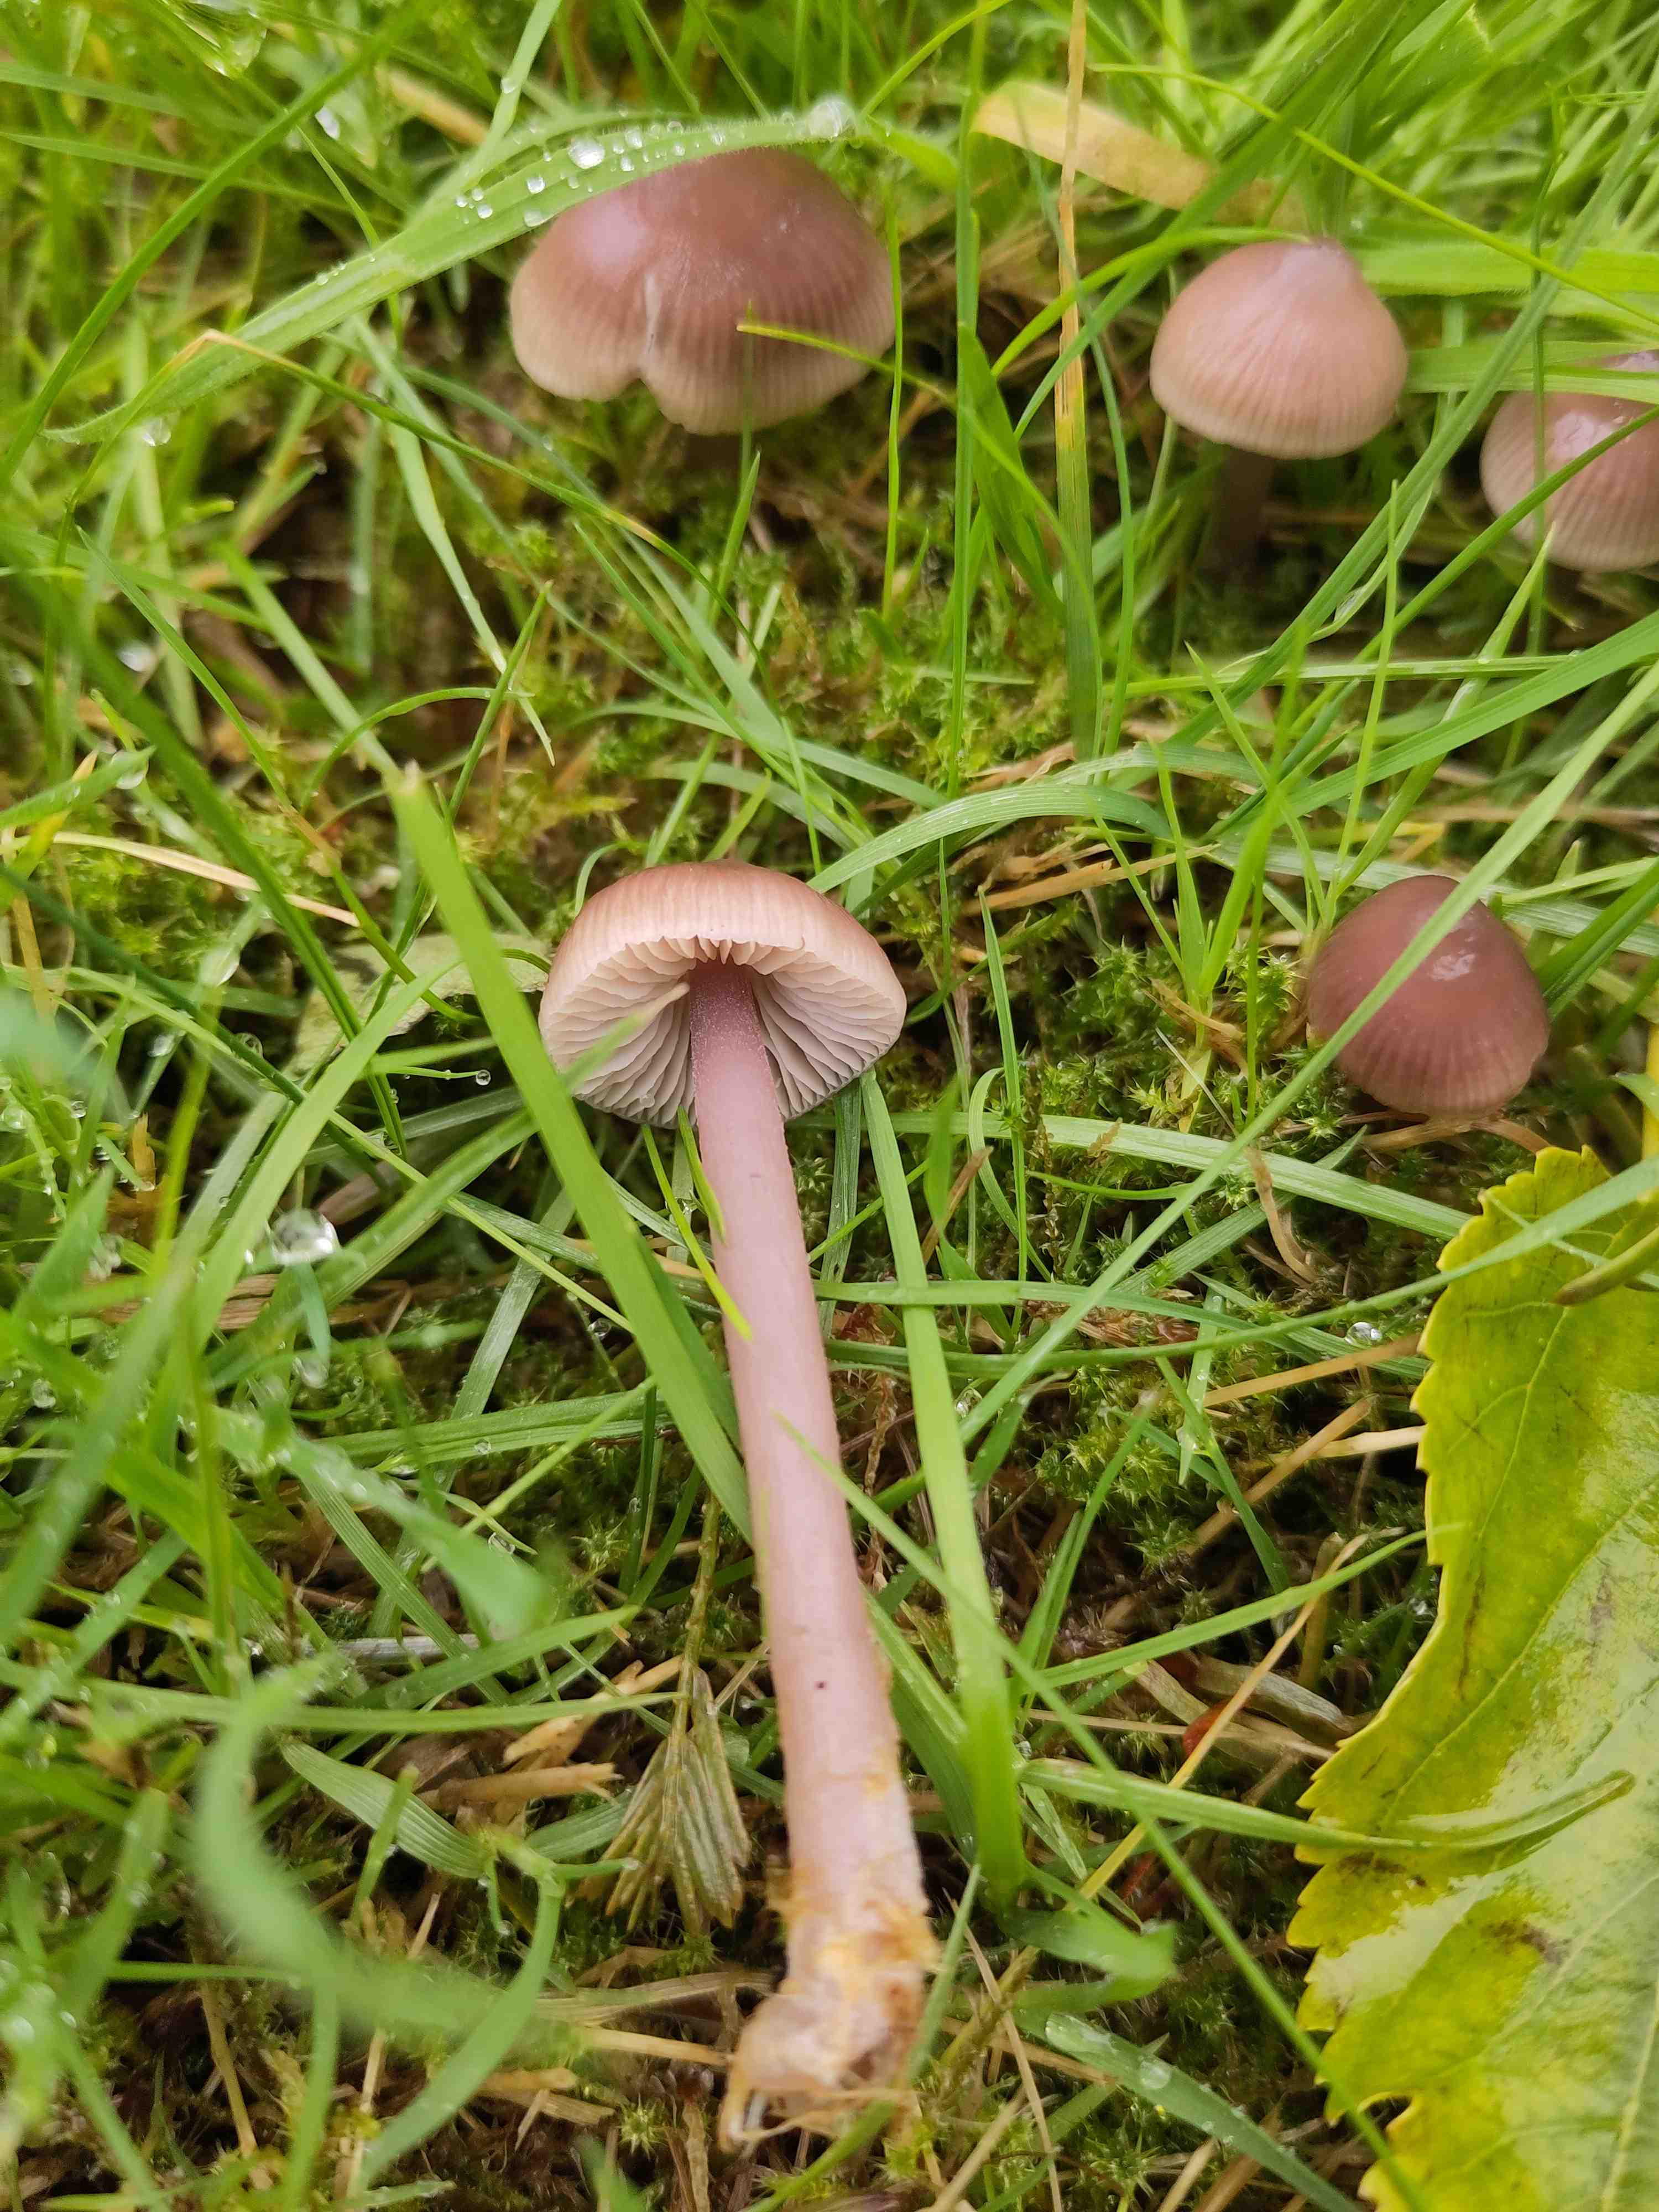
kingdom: Fungi
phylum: Basidiomycota
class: Agaricomycetes
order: Agaricales
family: Mycenaceae
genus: Mycena
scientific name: Mycena luteovariegata
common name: lillagul huesvamp
